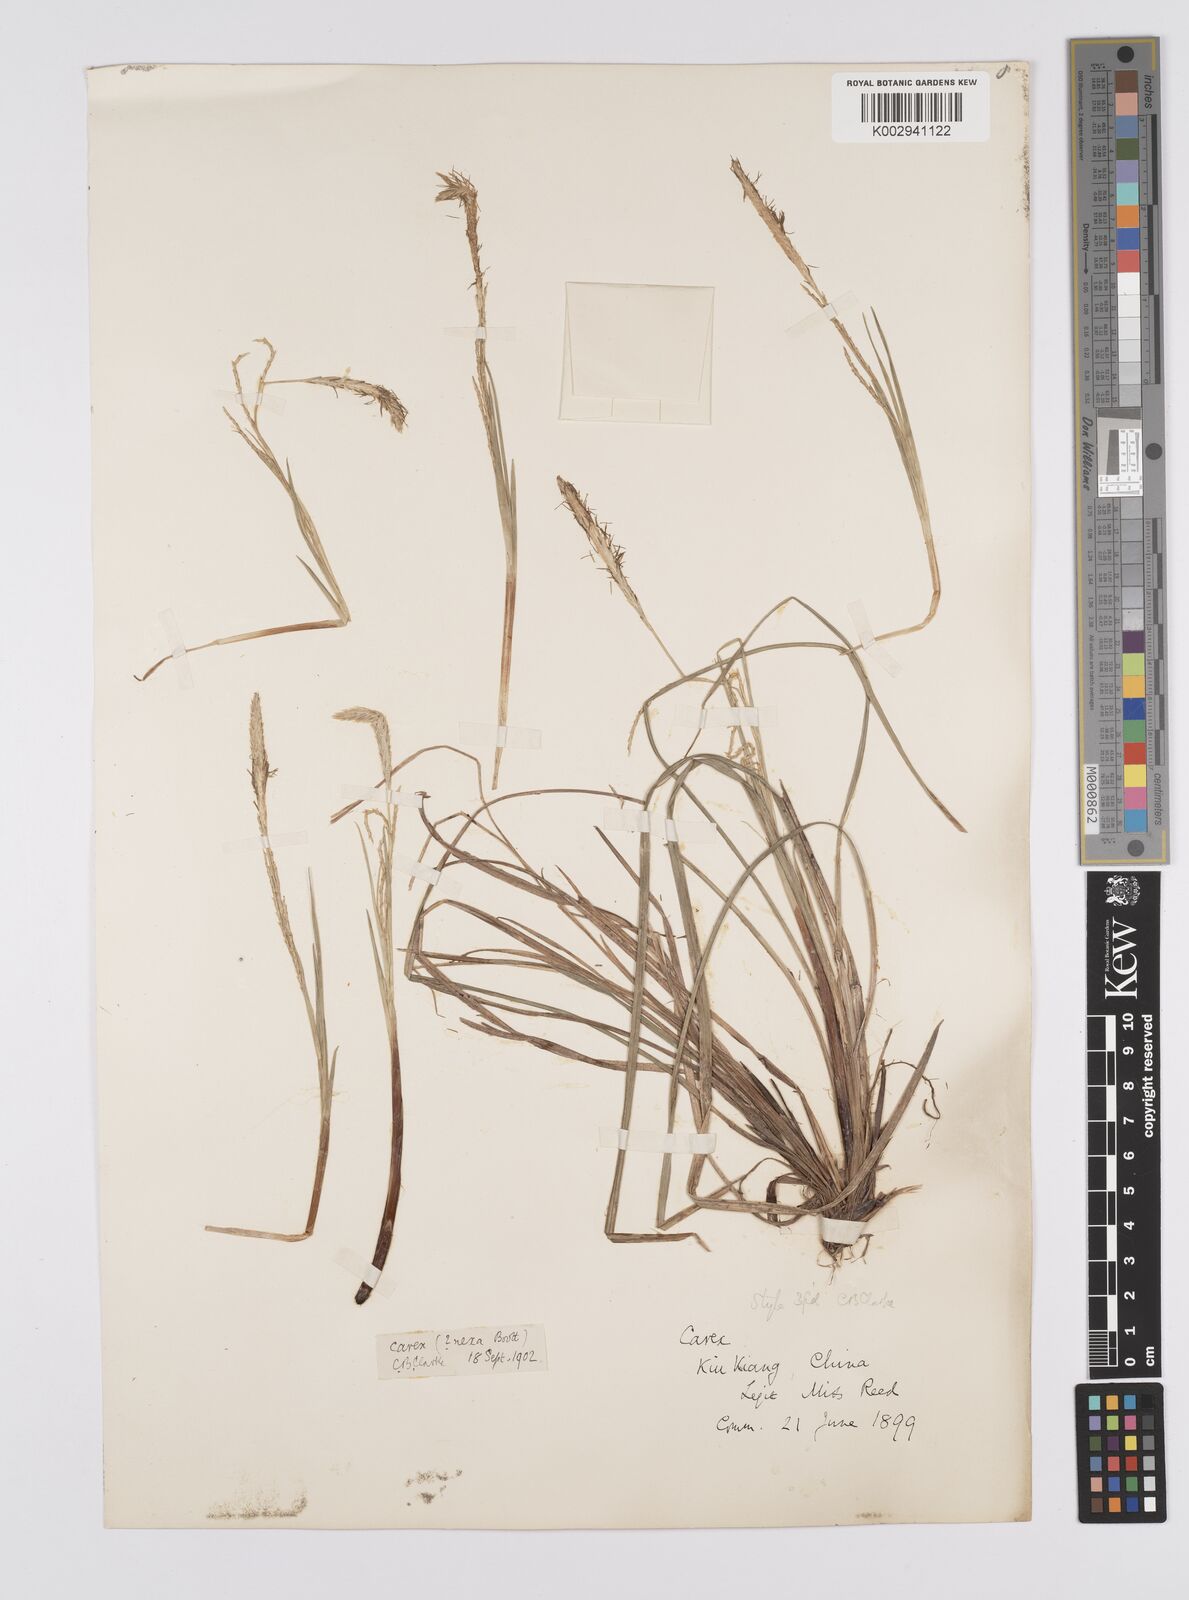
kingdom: Plantae
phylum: Tracheophyta
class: Liliopsida
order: Poales
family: Cyperaceae
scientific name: Cyperaceae
